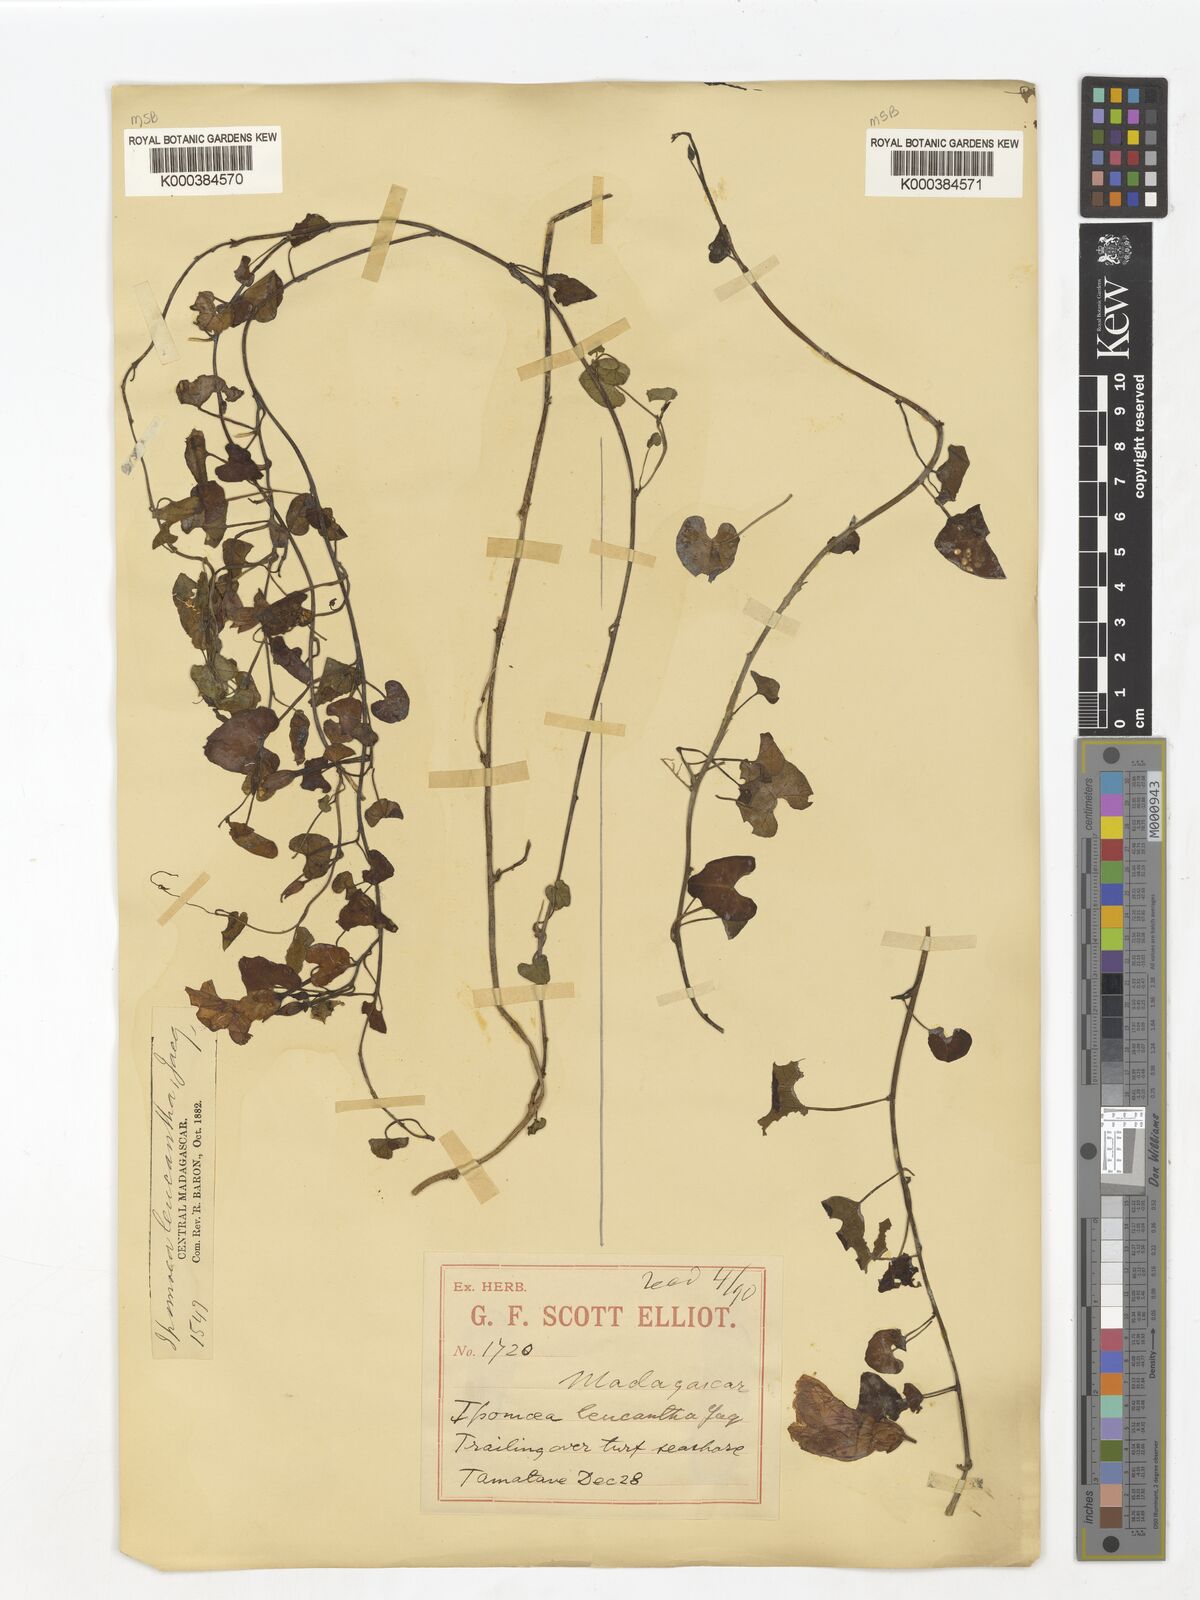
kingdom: Plantae
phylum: Tracheophyta
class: Magnoliopsida
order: Solanales
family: Convolvulaceae
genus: Ipomoea
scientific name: Ipomoea imperati
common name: Fiddle-leaf morning-glory
